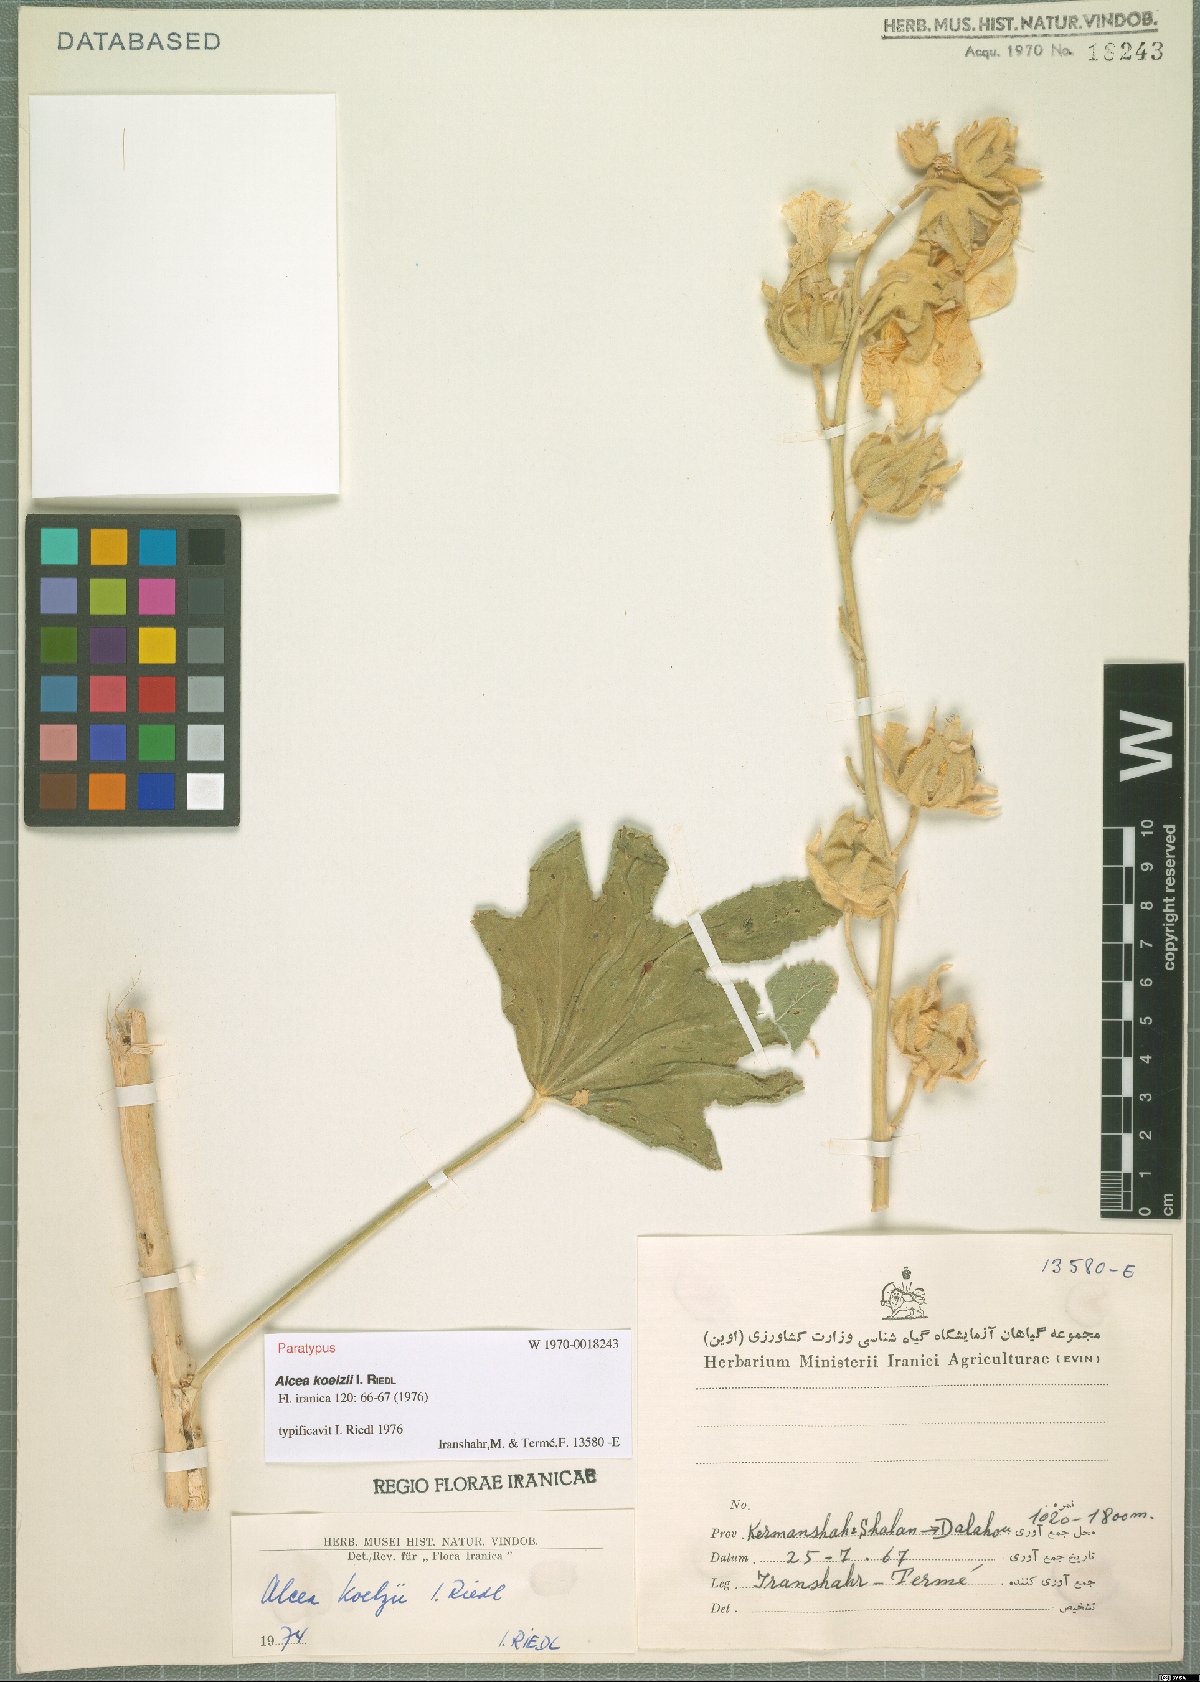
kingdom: Plantae
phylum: Tracheophyta
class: Magnoliopsida
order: Malvales
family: Malvaceae
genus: Alcea
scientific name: Alcea koelzii
